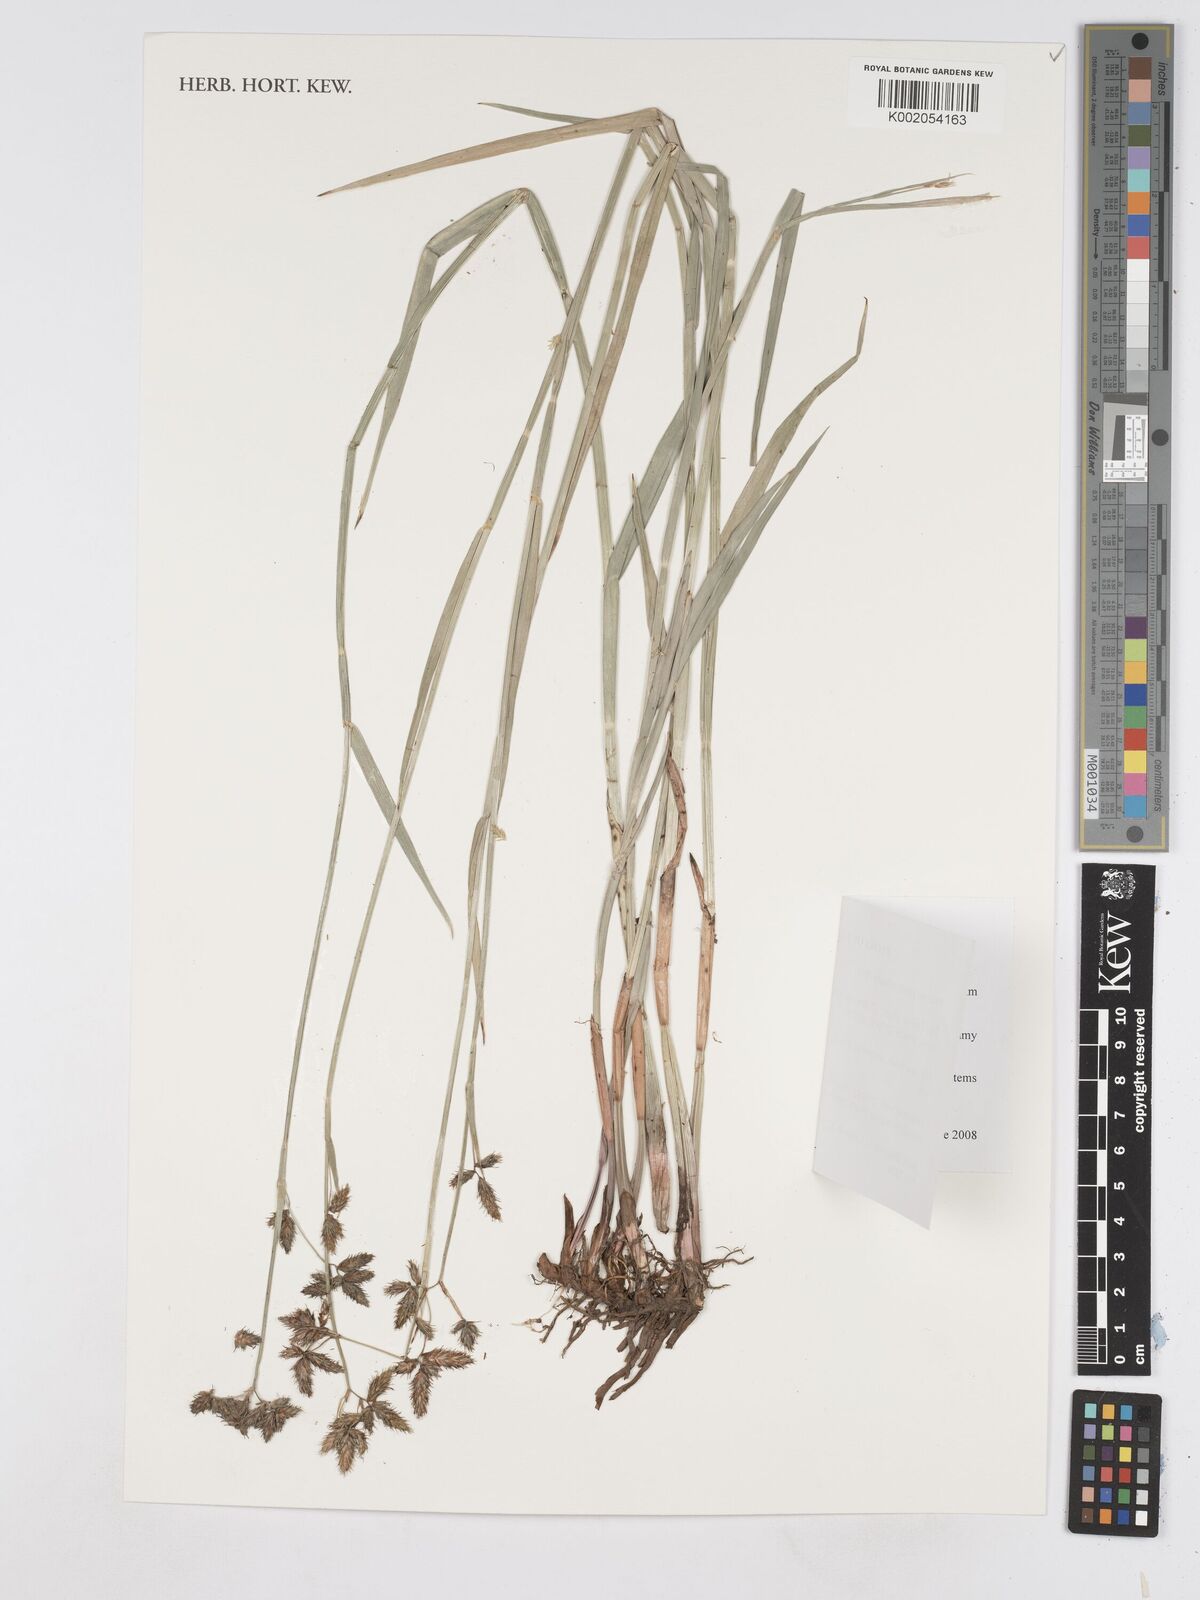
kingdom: Plantae
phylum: Tracheophyta
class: Liliopsida
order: Poales
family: Cyperaceae
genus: Fuirena
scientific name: Fuirena pachyrrhiza
